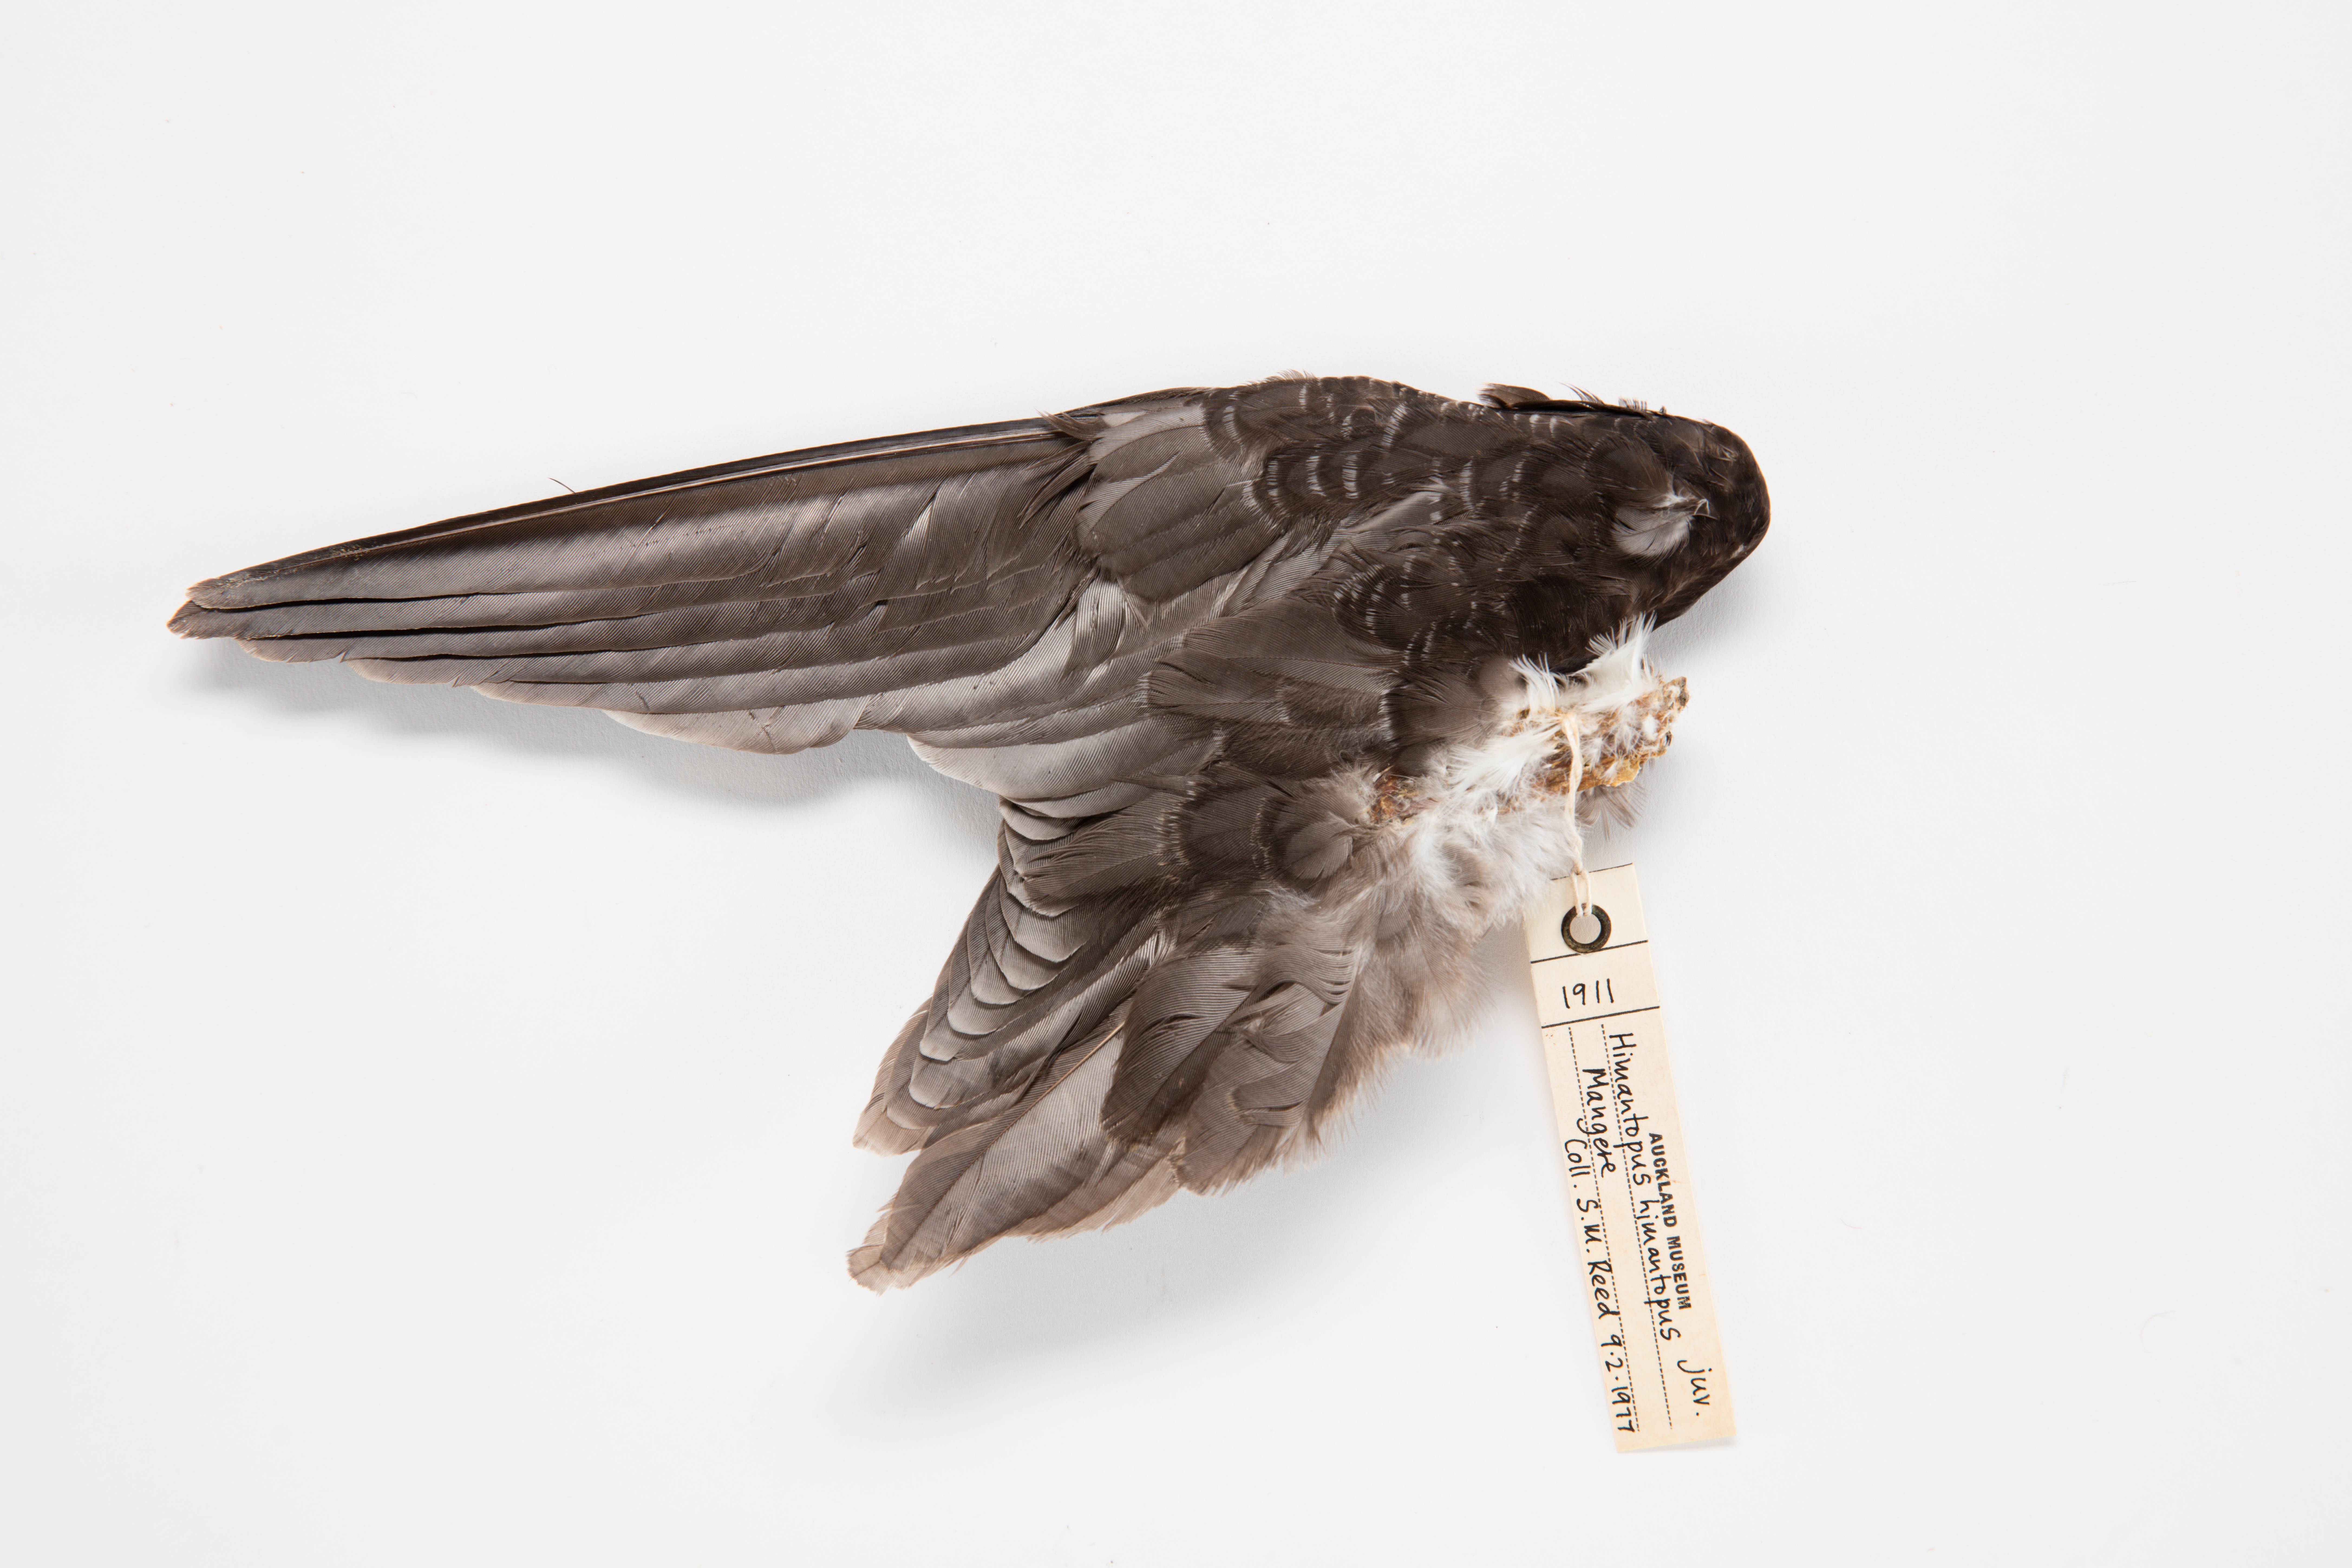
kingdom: Animalia
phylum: Chordata
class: Aves
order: Charadriiformes
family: Recurvirostridae
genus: Himantopus
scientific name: Himantopus himantopus
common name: Black-winged stilt
